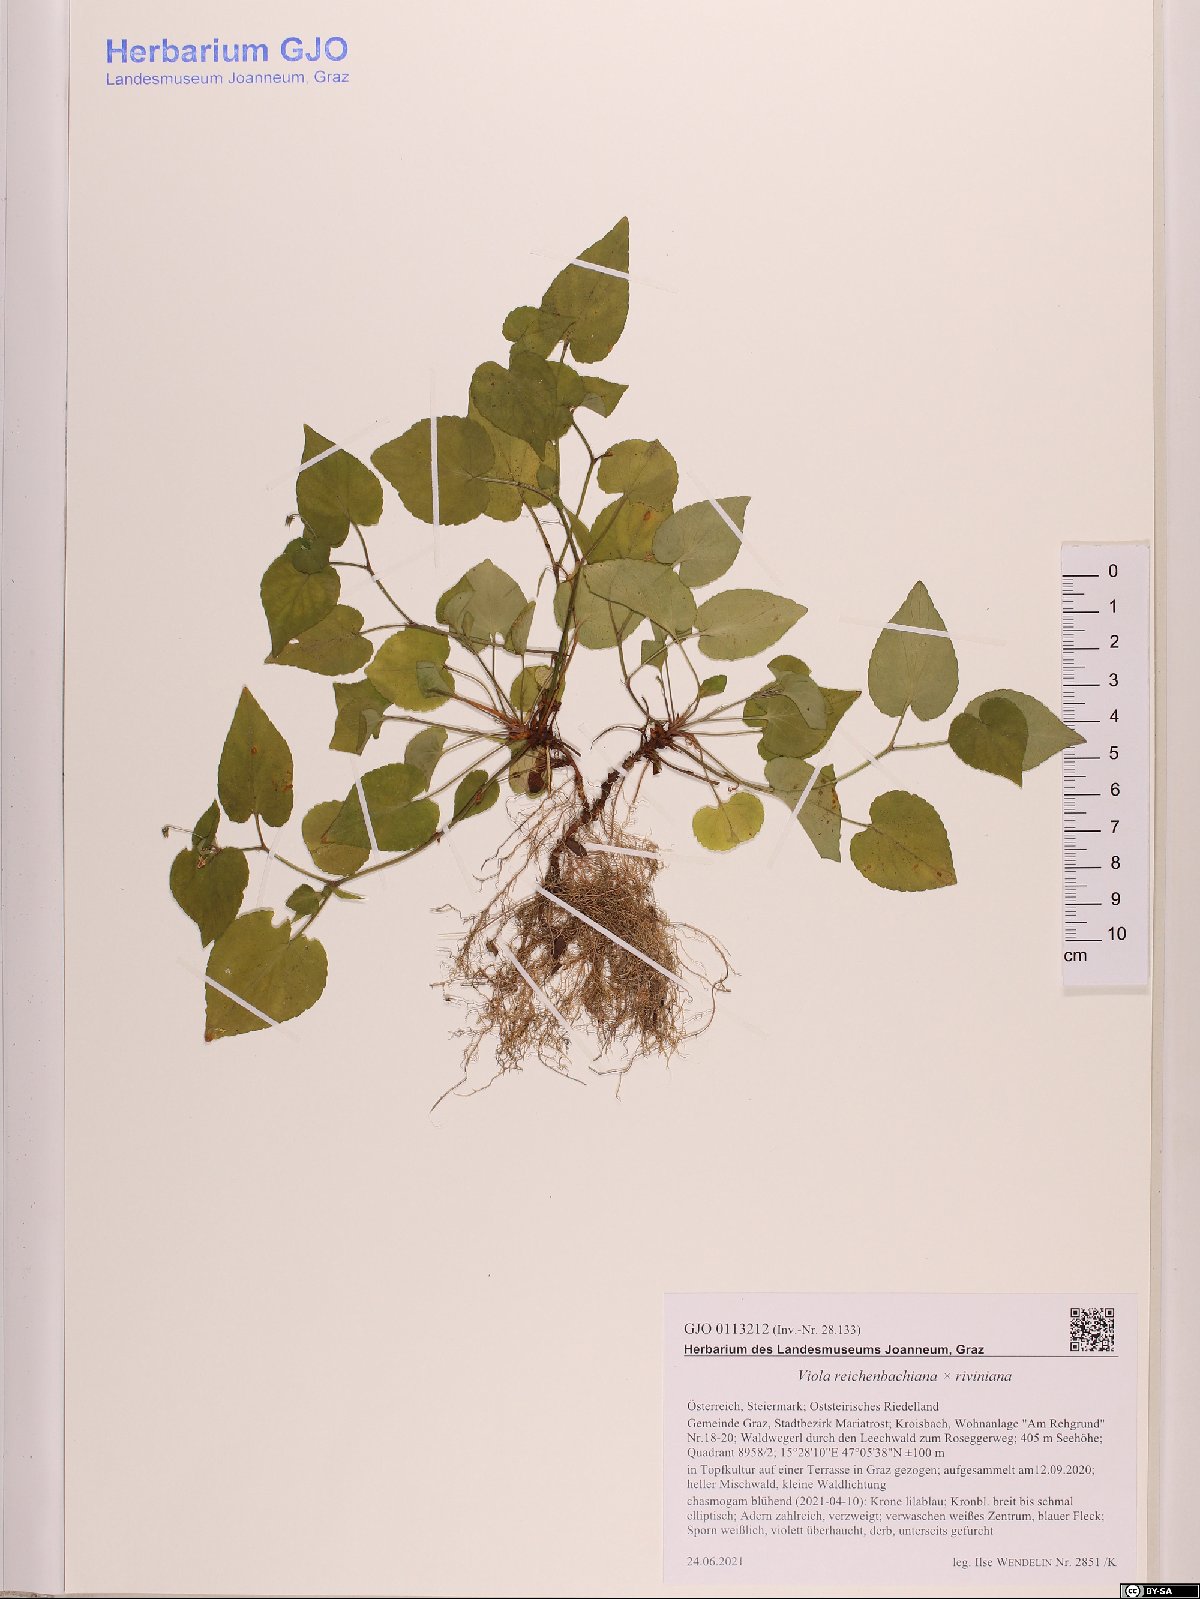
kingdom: Plantae
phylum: Tracheophyta
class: Magnoliopsida
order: Malpighiales
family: Violaceae
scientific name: Violaceae
